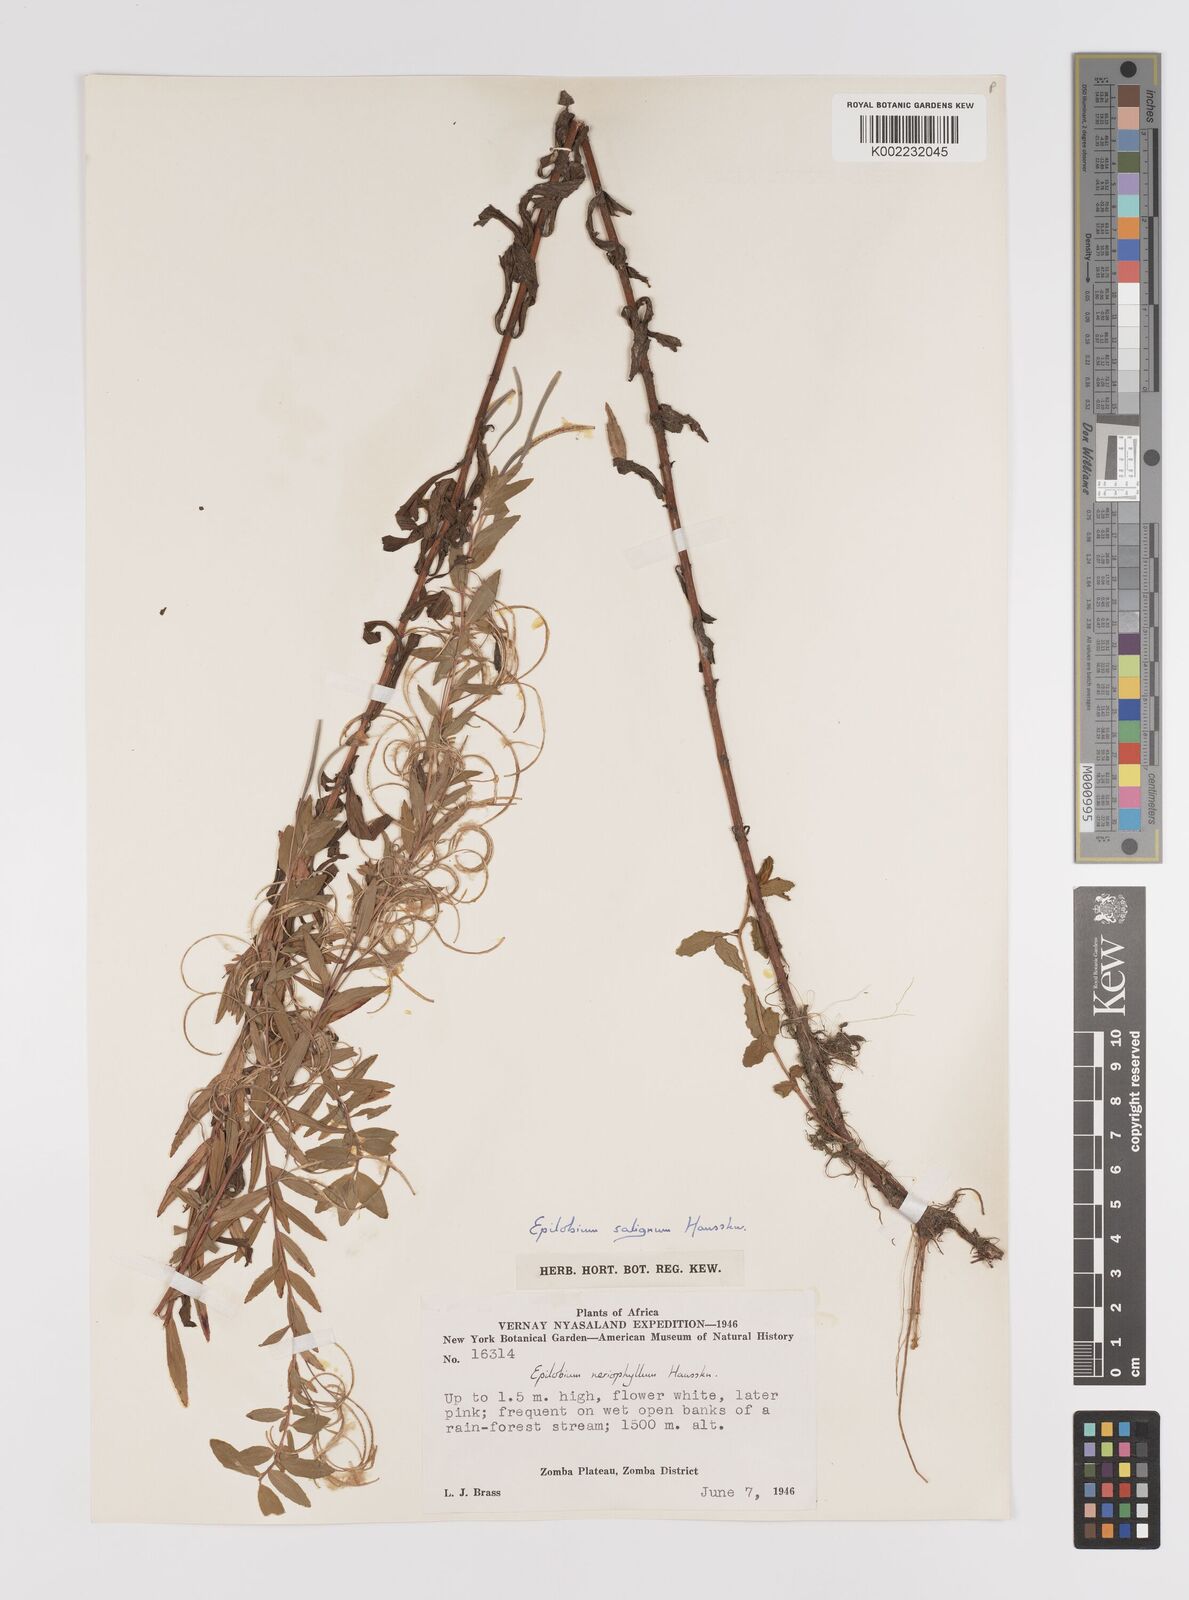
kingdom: Plantae
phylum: Tracheophyta
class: Magnoliopsida
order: Myrtales
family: Onagraceae
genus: Epilobium
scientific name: Epilobium salignum
